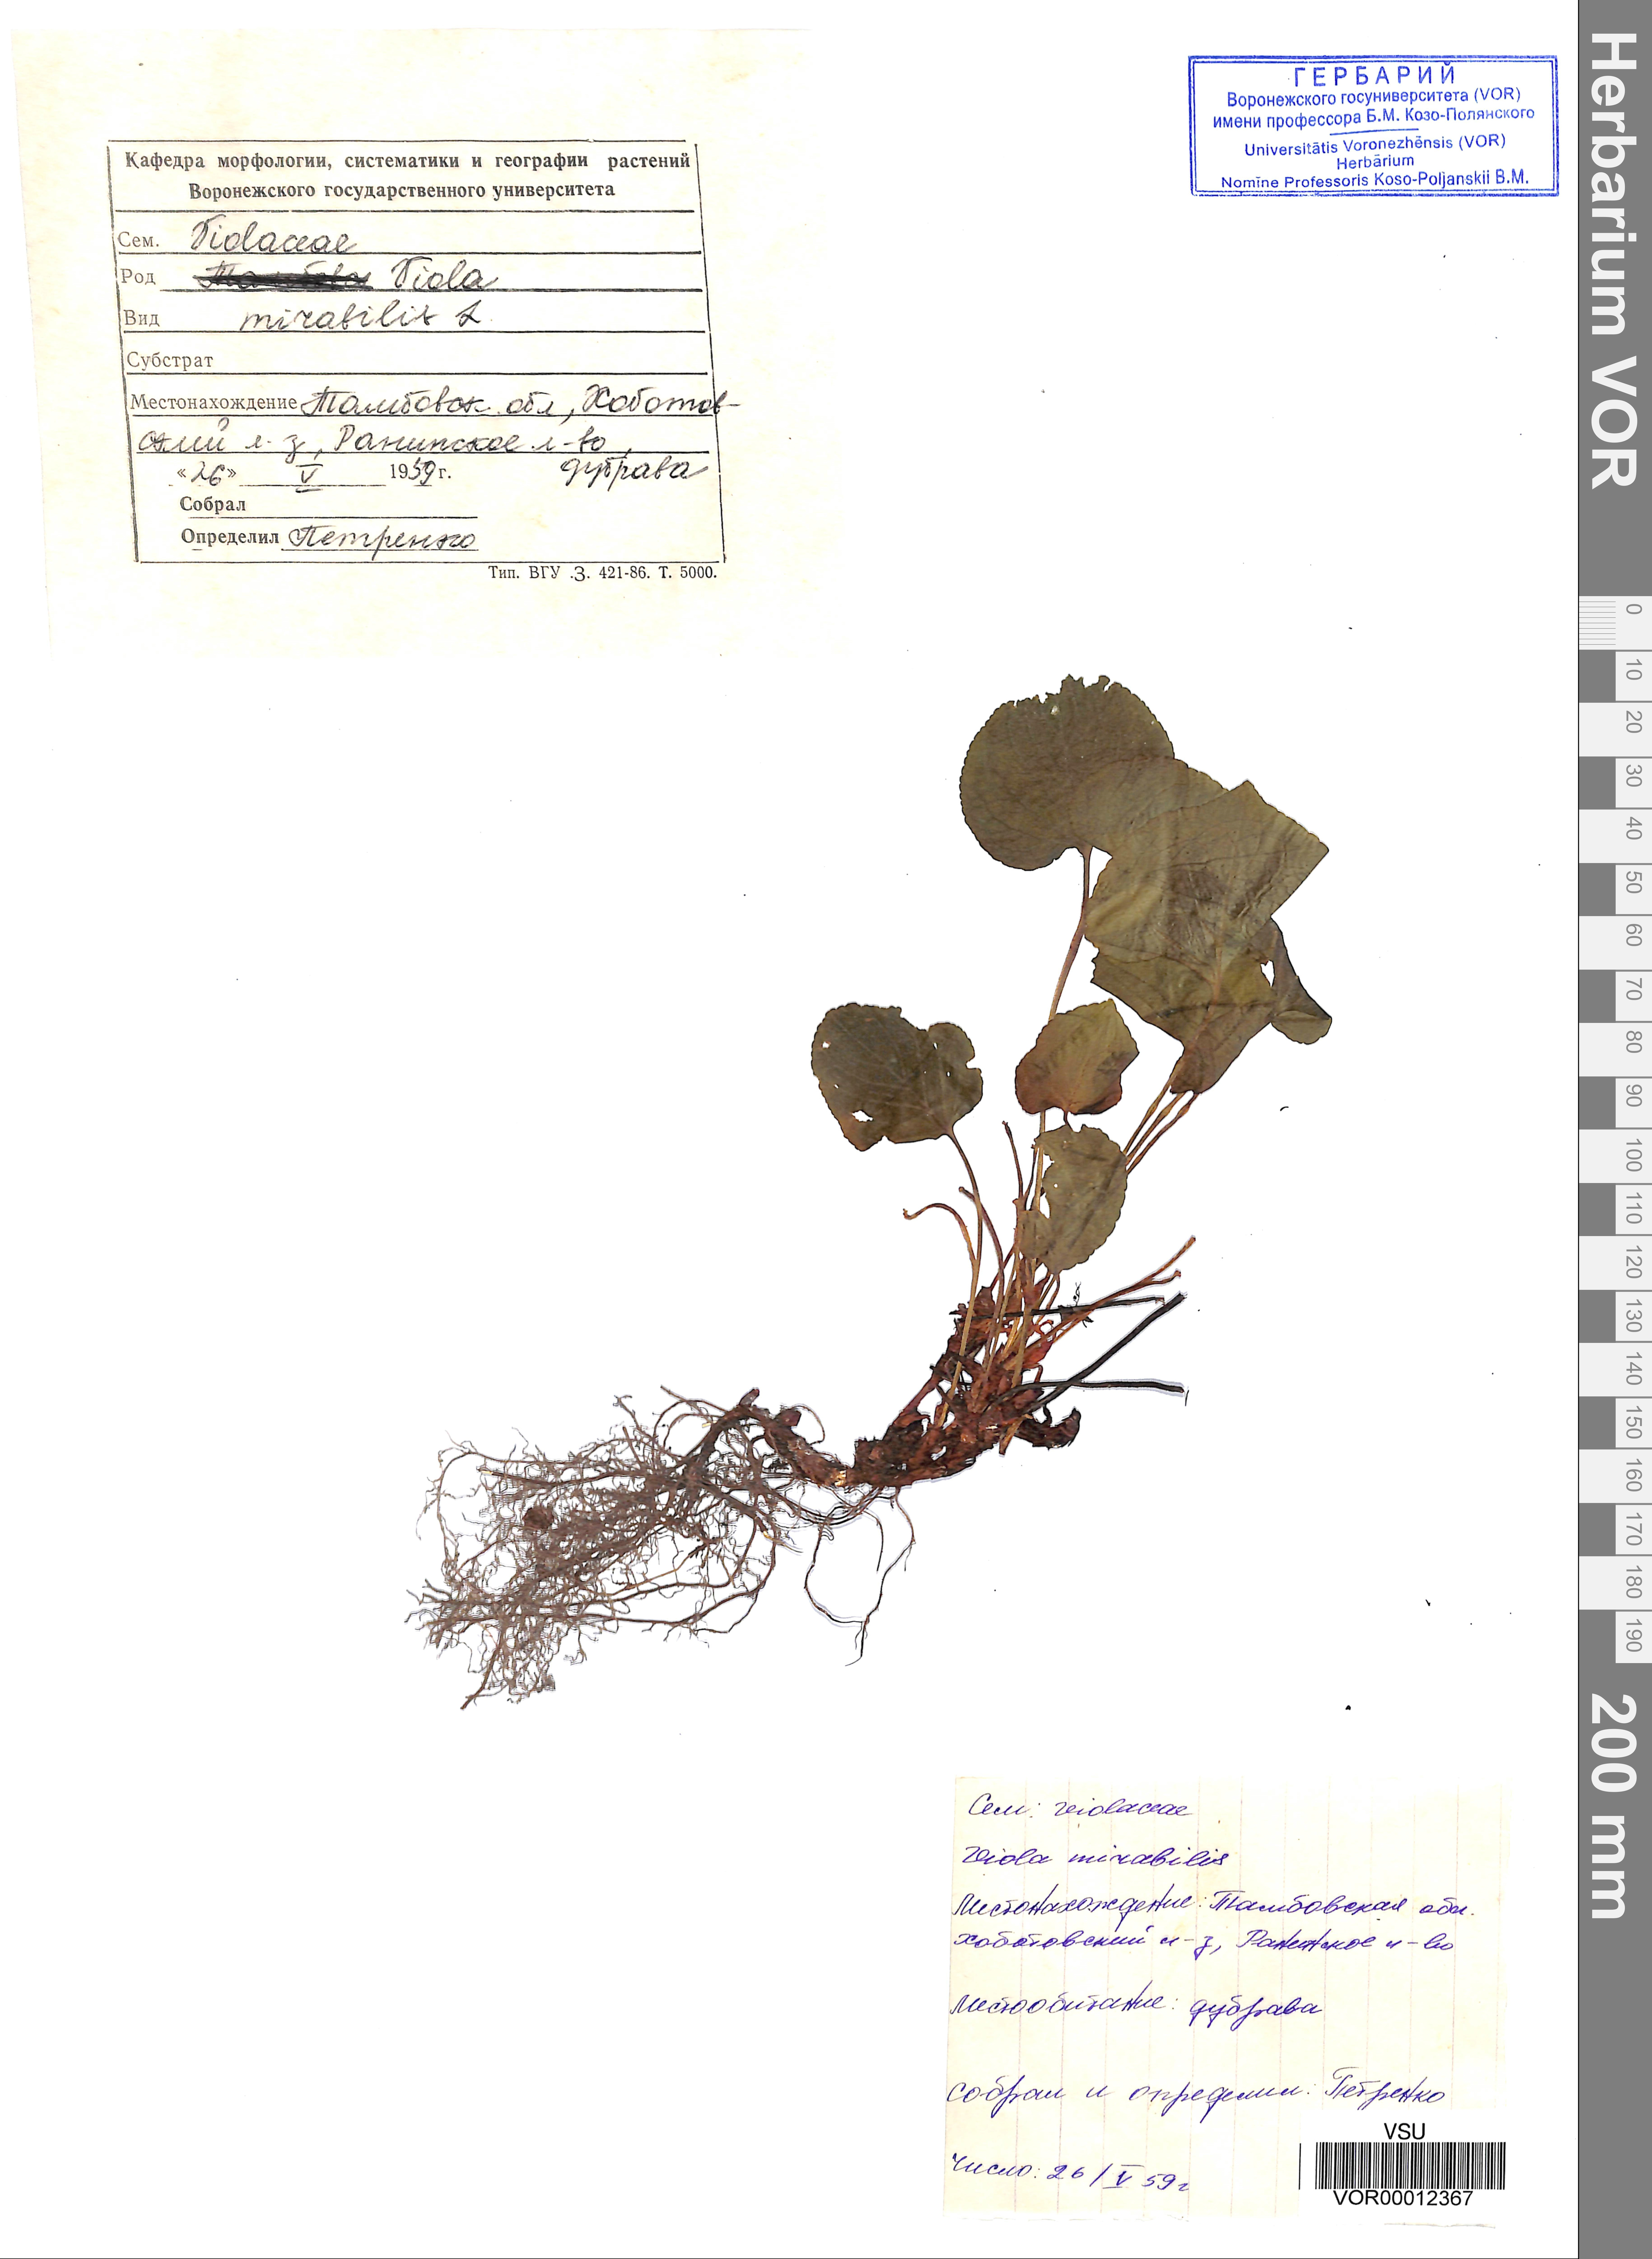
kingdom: Plantae
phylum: Tracheophyta
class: Magnoliopsida
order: Malpighiales
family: Violaceae
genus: Viola
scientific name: Viola mirabilis
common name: Wonder violet
